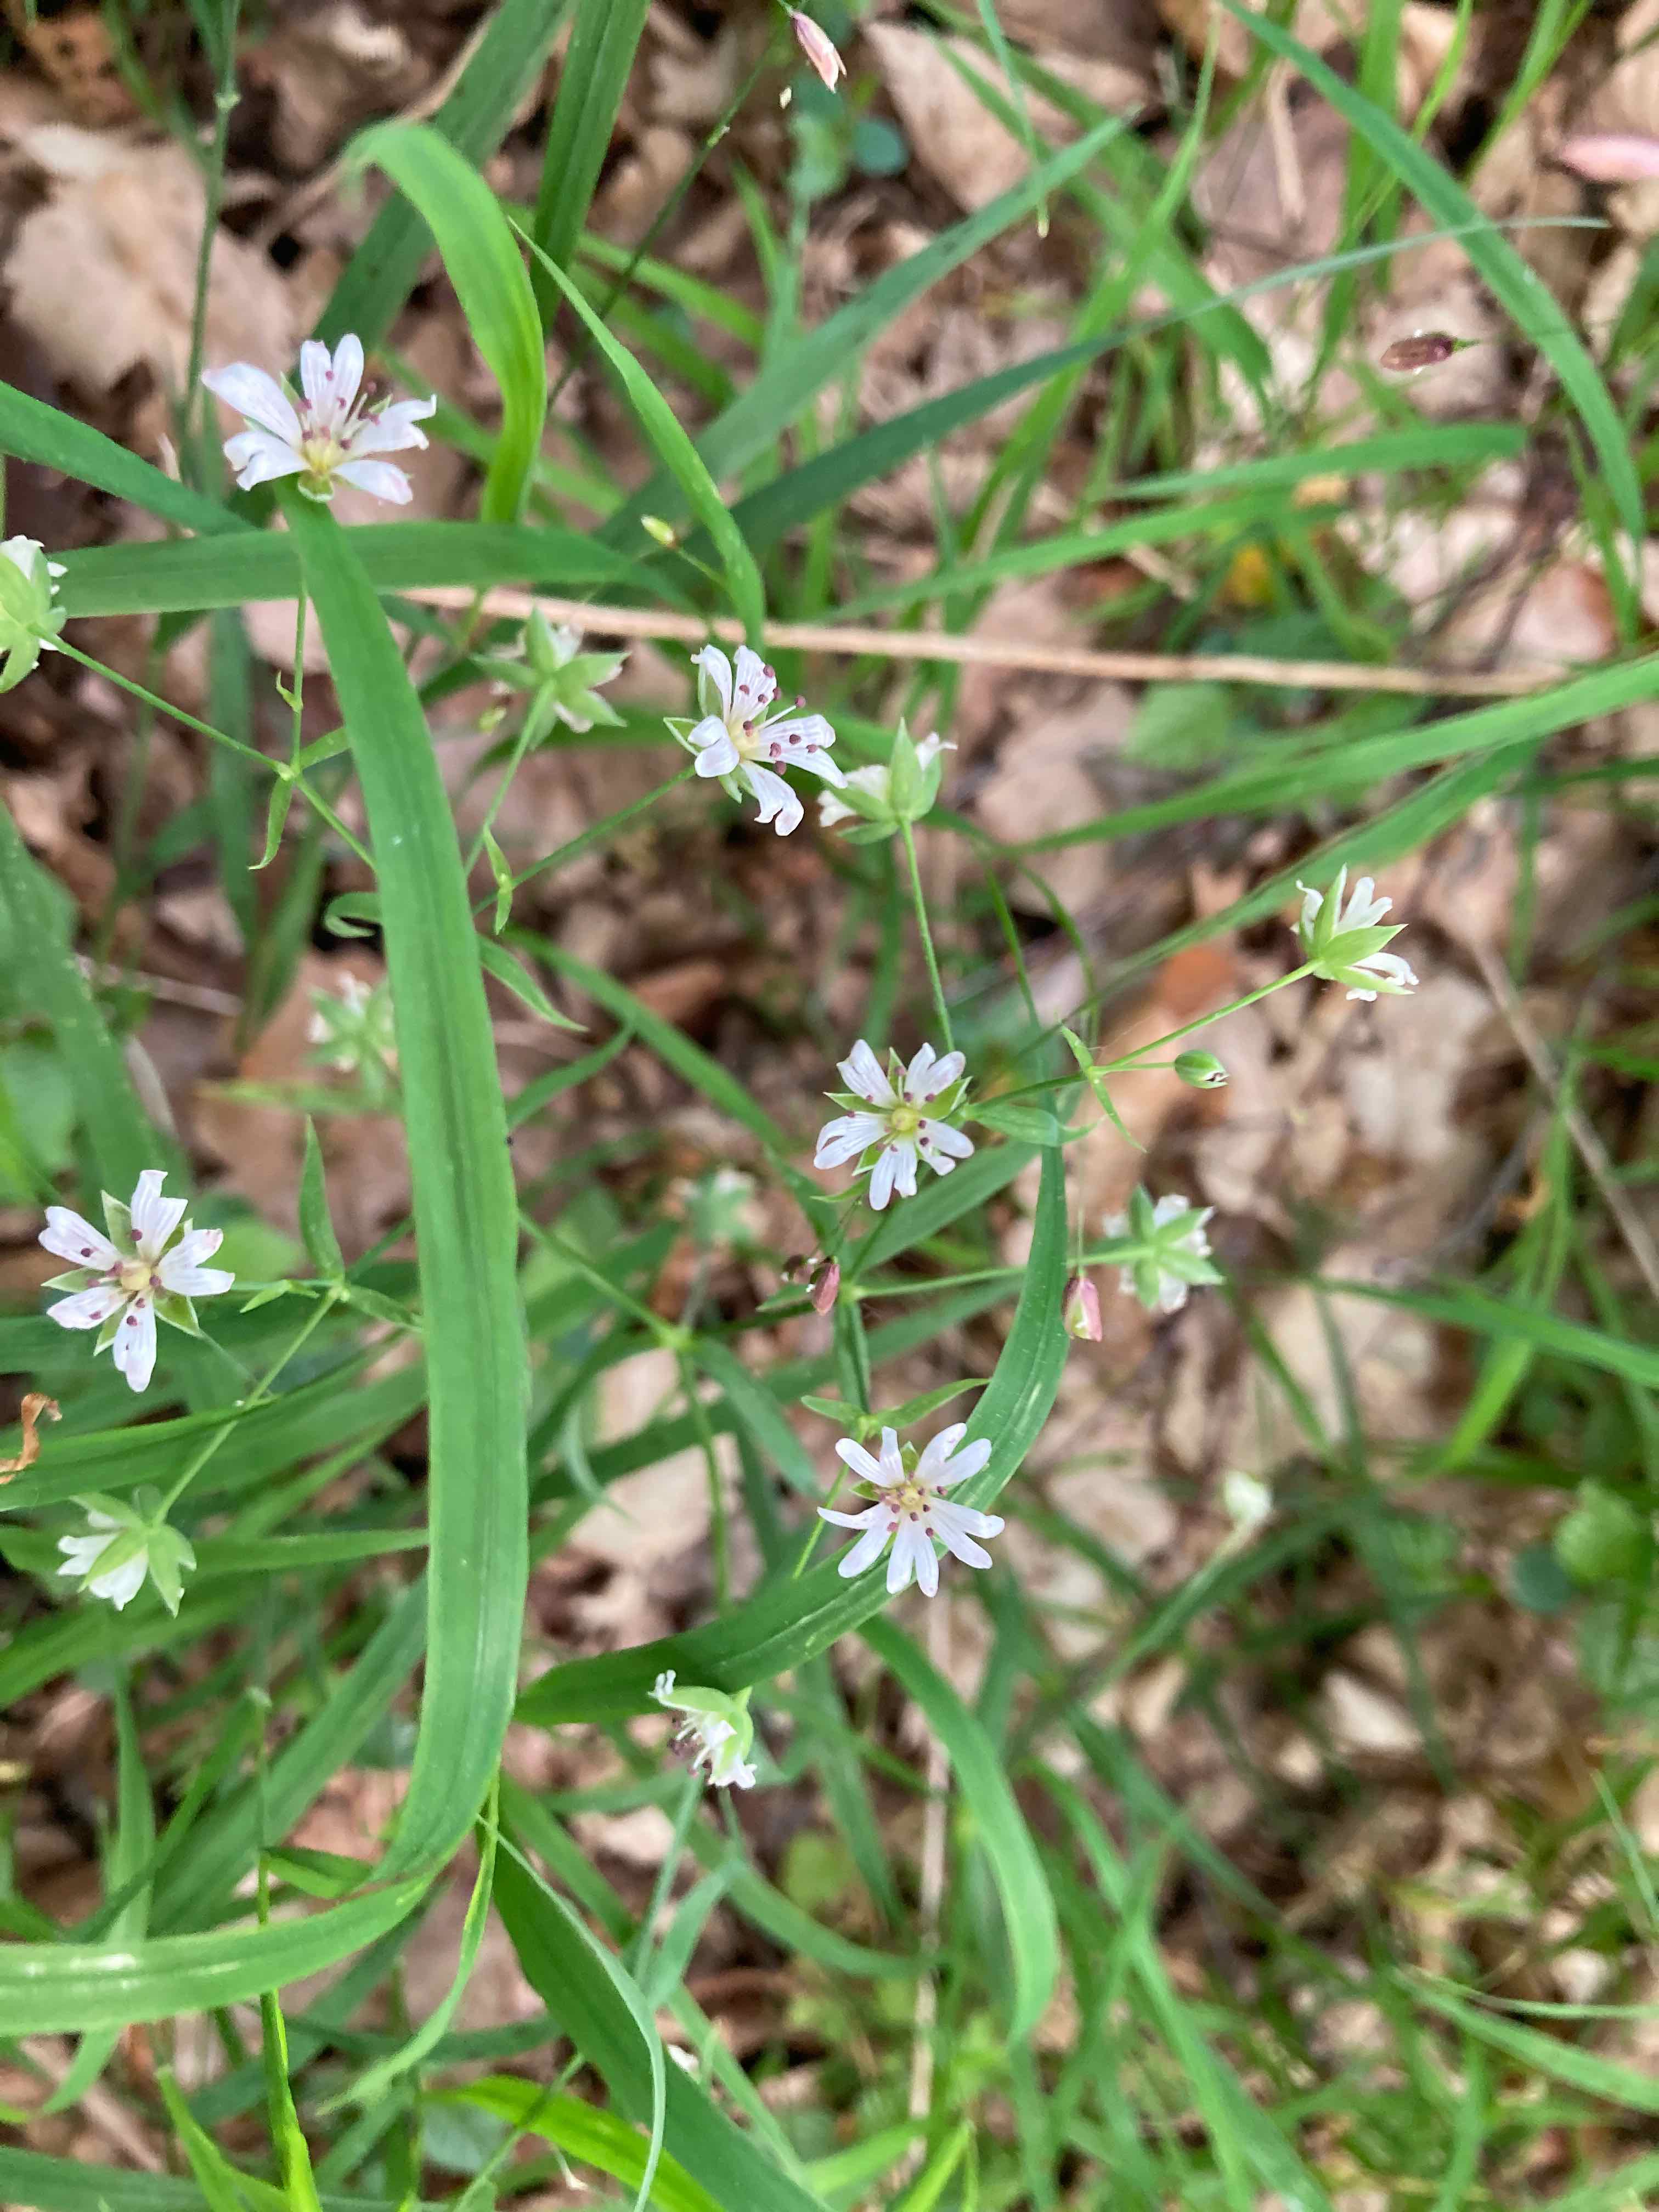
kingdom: Fungi
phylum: Basidiomycota
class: Microbotryomycetes
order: Microbotryales
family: Microbotryaceae
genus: Microbotryum
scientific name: Microbotryum stellariae
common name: fladstjerne-støvbladrust
